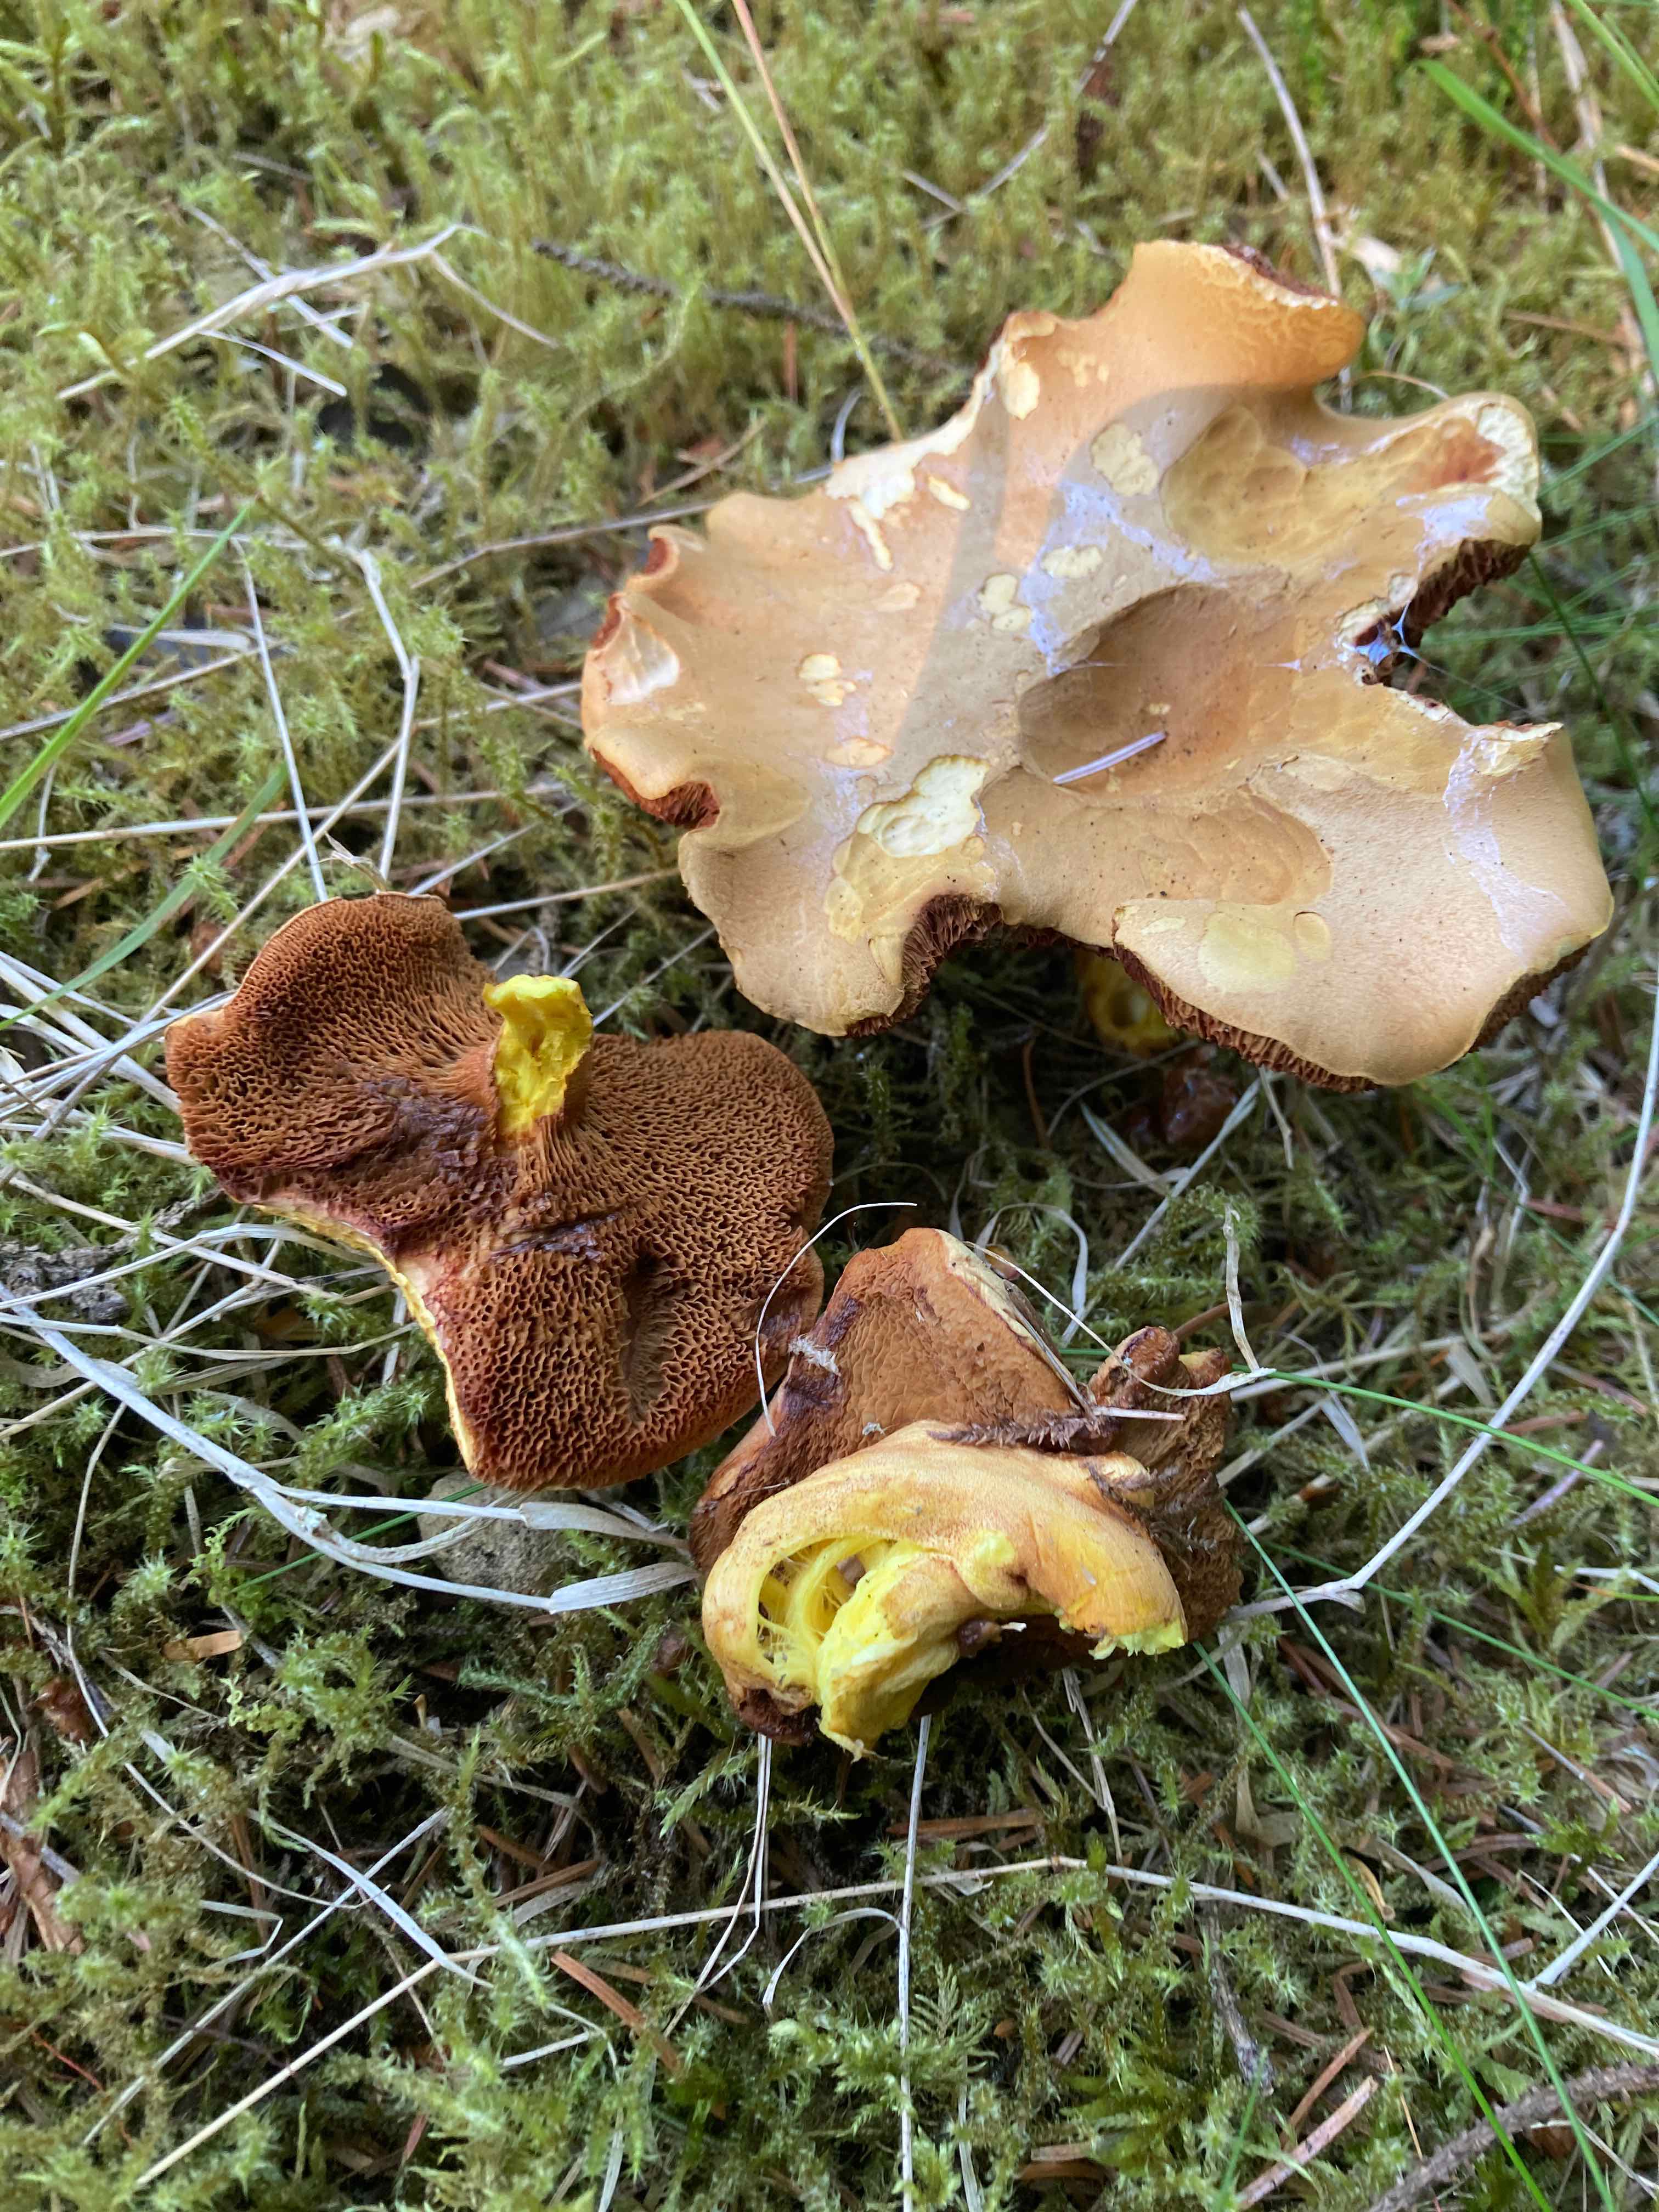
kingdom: Fungi
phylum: Basidiomycota
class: Agaricomycetes
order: Boletales
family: Boletaceae
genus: Chalciporus
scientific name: Chalciporus piperatus
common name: peberrørhat
